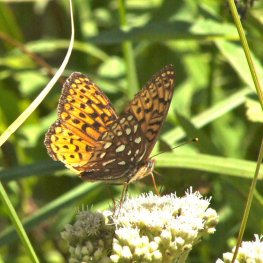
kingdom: Animalia
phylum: Arthropoda
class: Insecta
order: Lepidoptera
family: Nymphalidae
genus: Speyeria
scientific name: Speyeria atlantis
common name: Atlantis Fritillary
